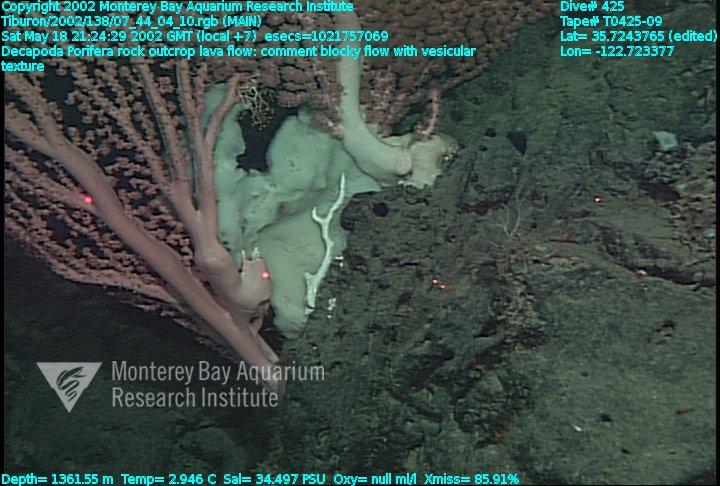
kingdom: Animalia
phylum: Porifera
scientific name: Porifera
